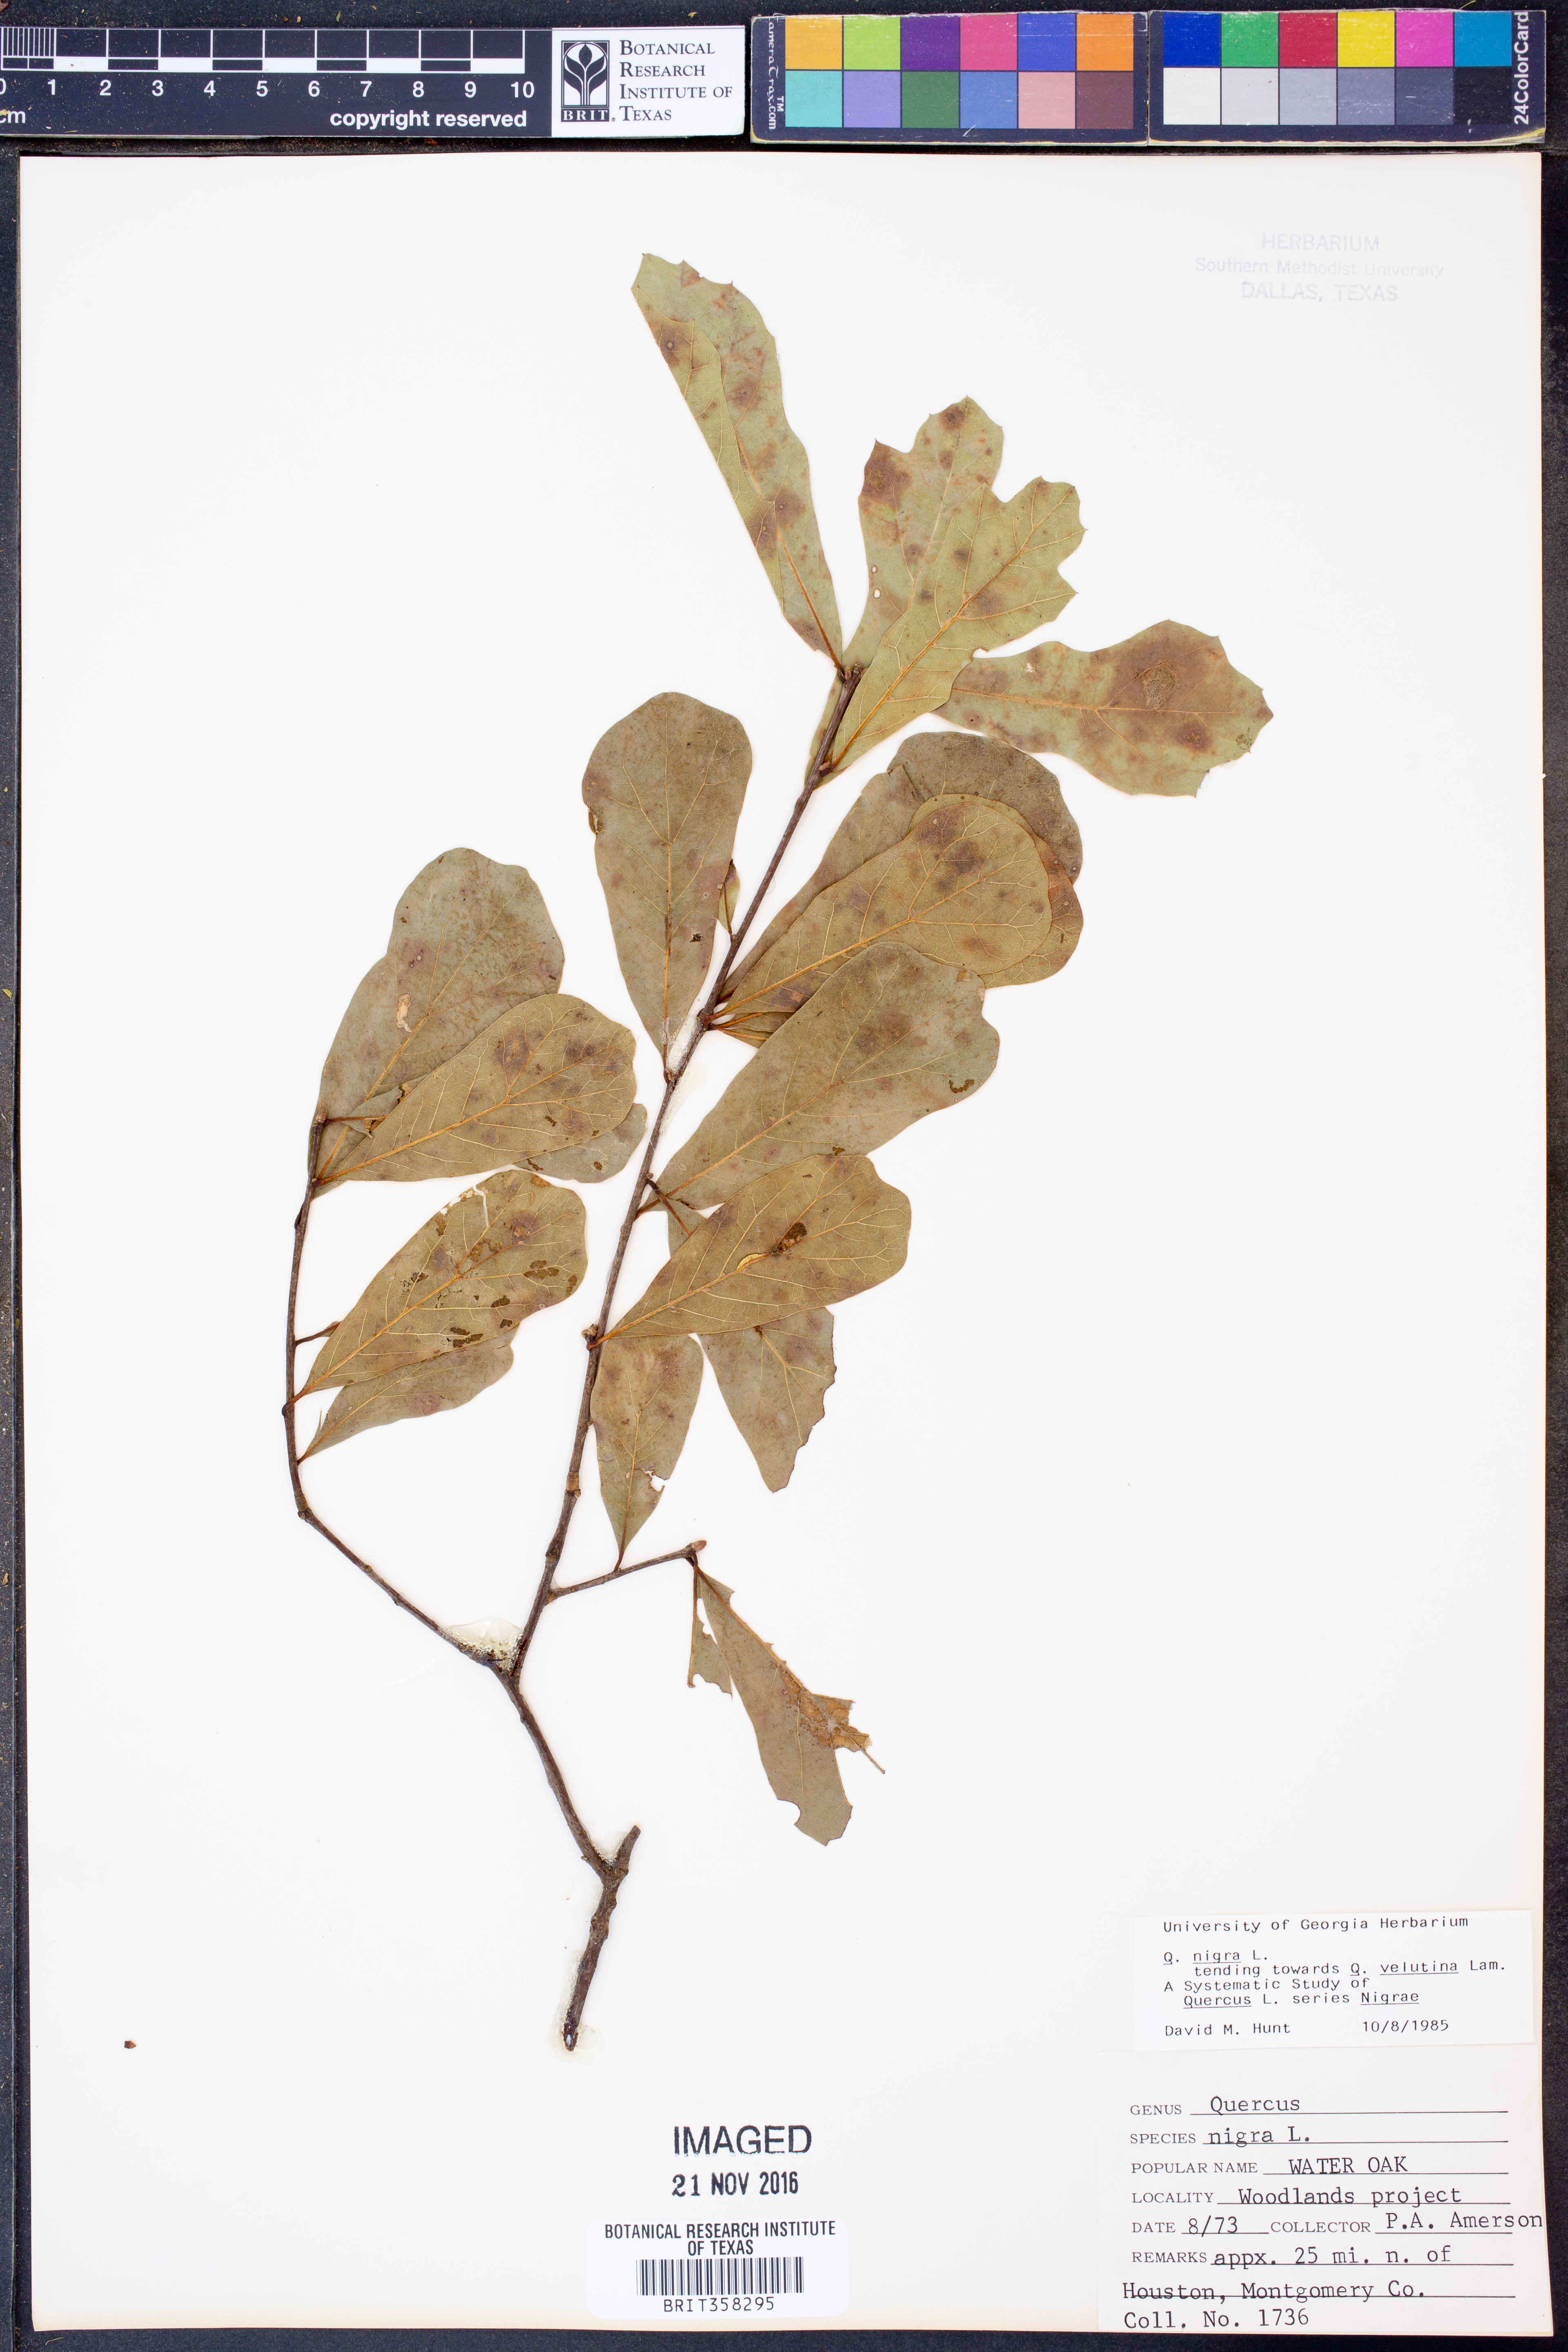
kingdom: Plantae
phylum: Tracheophyta
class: Magnoliopsida
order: Fagales
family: Fagaceae
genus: Quercus
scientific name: Quercus nigra
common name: Water oak
